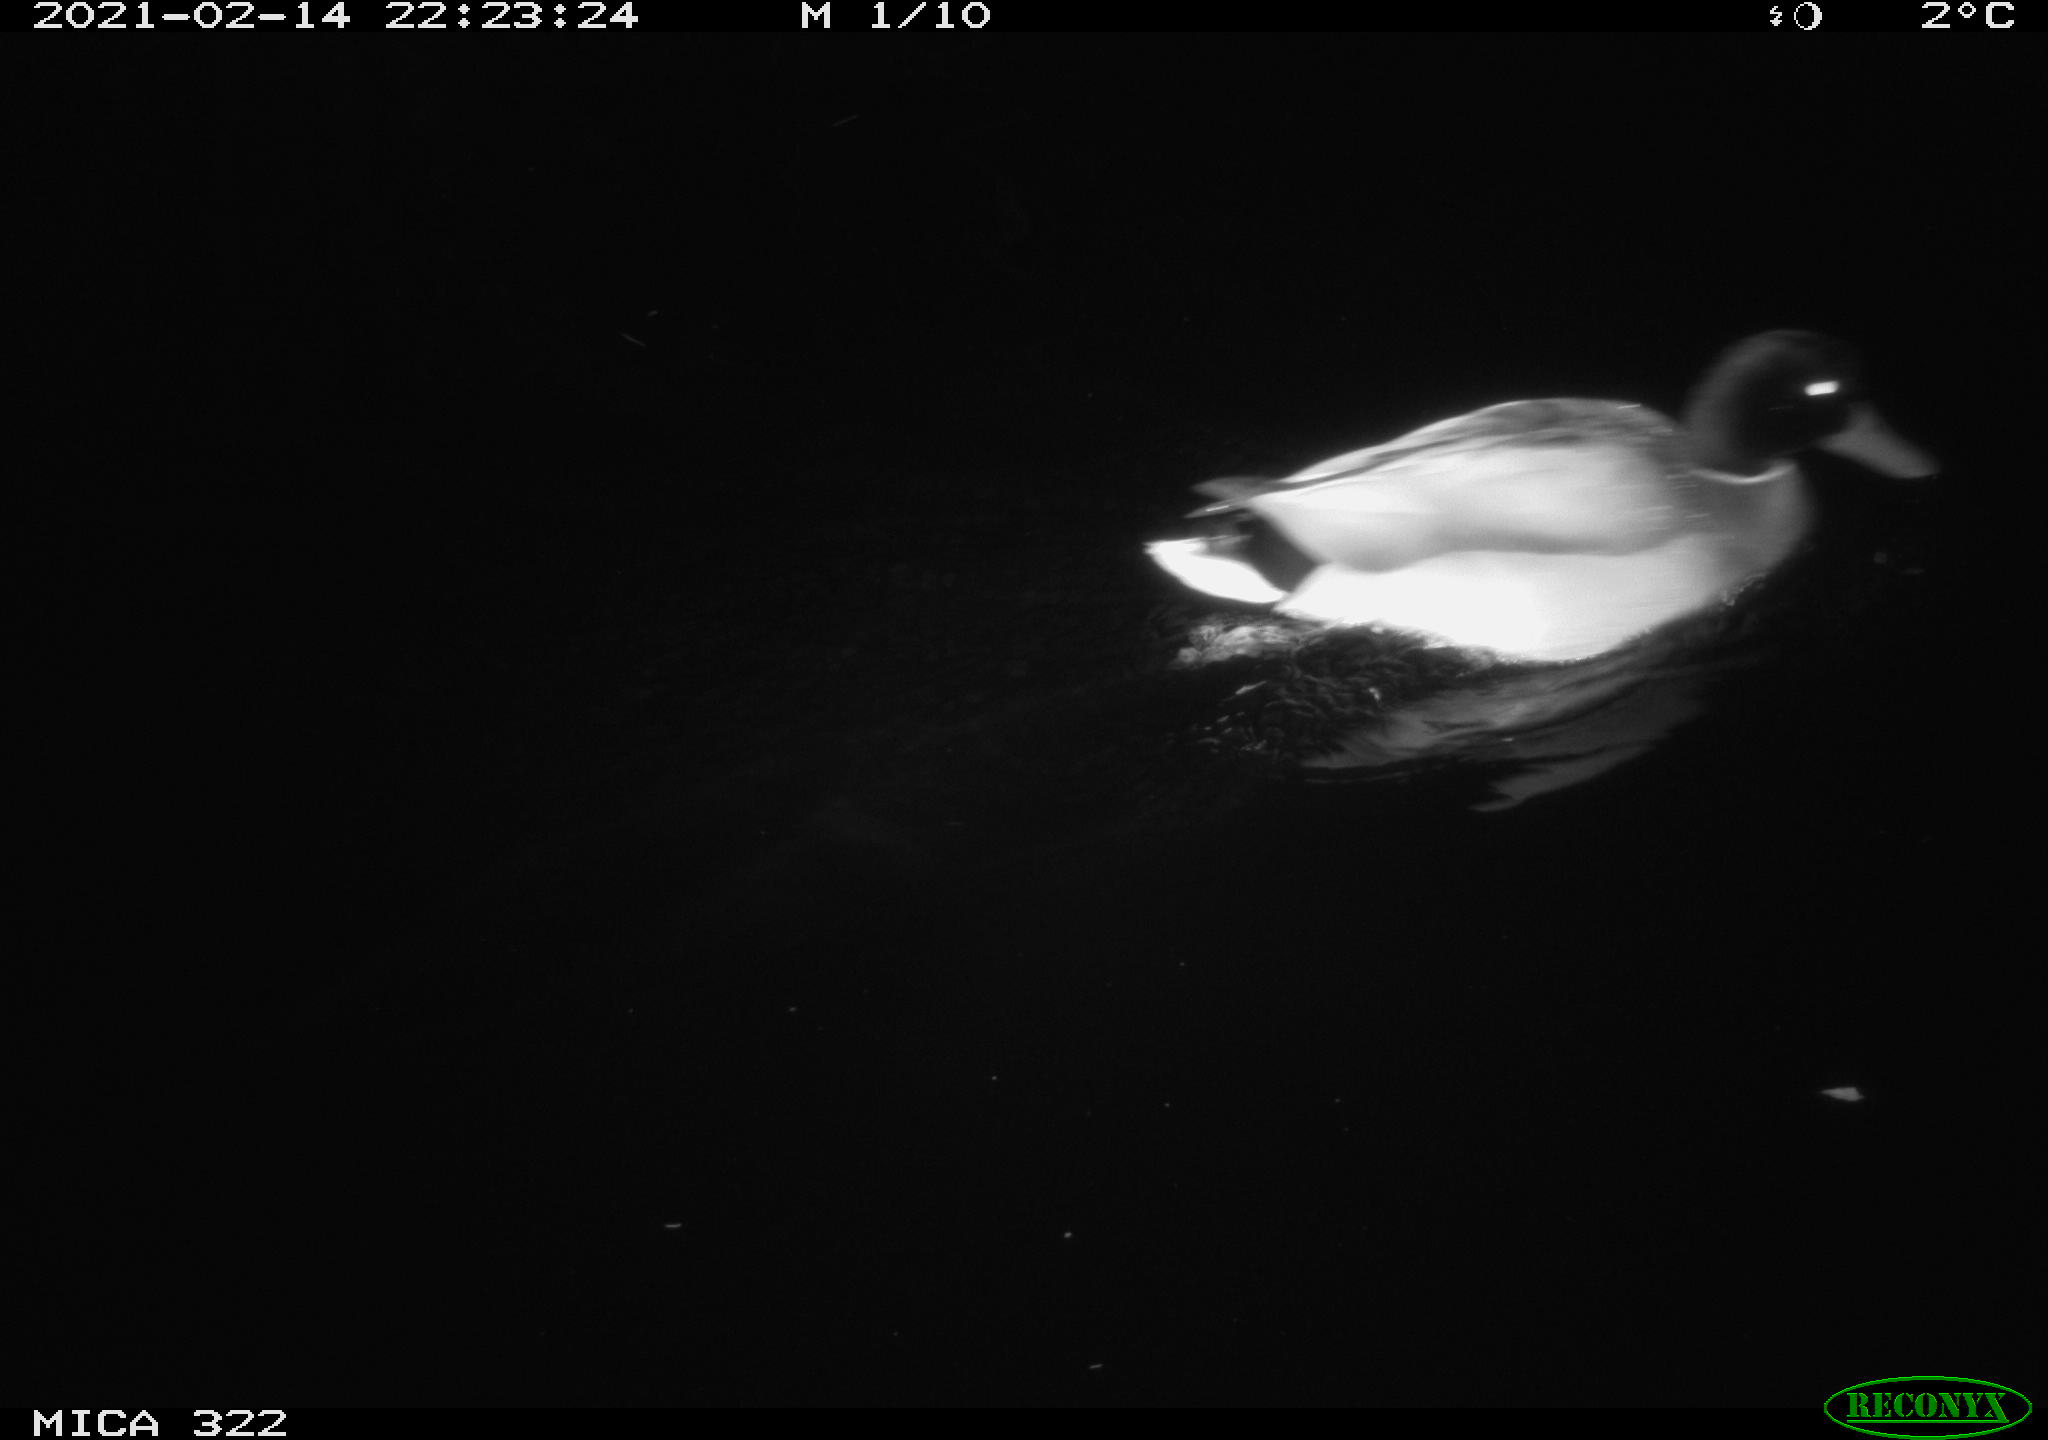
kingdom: Animalia
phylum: Chordata
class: Aves
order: Anseriformes
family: Anatidae
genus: Anas
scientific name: Anas platyrhynchos
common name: Mallard
